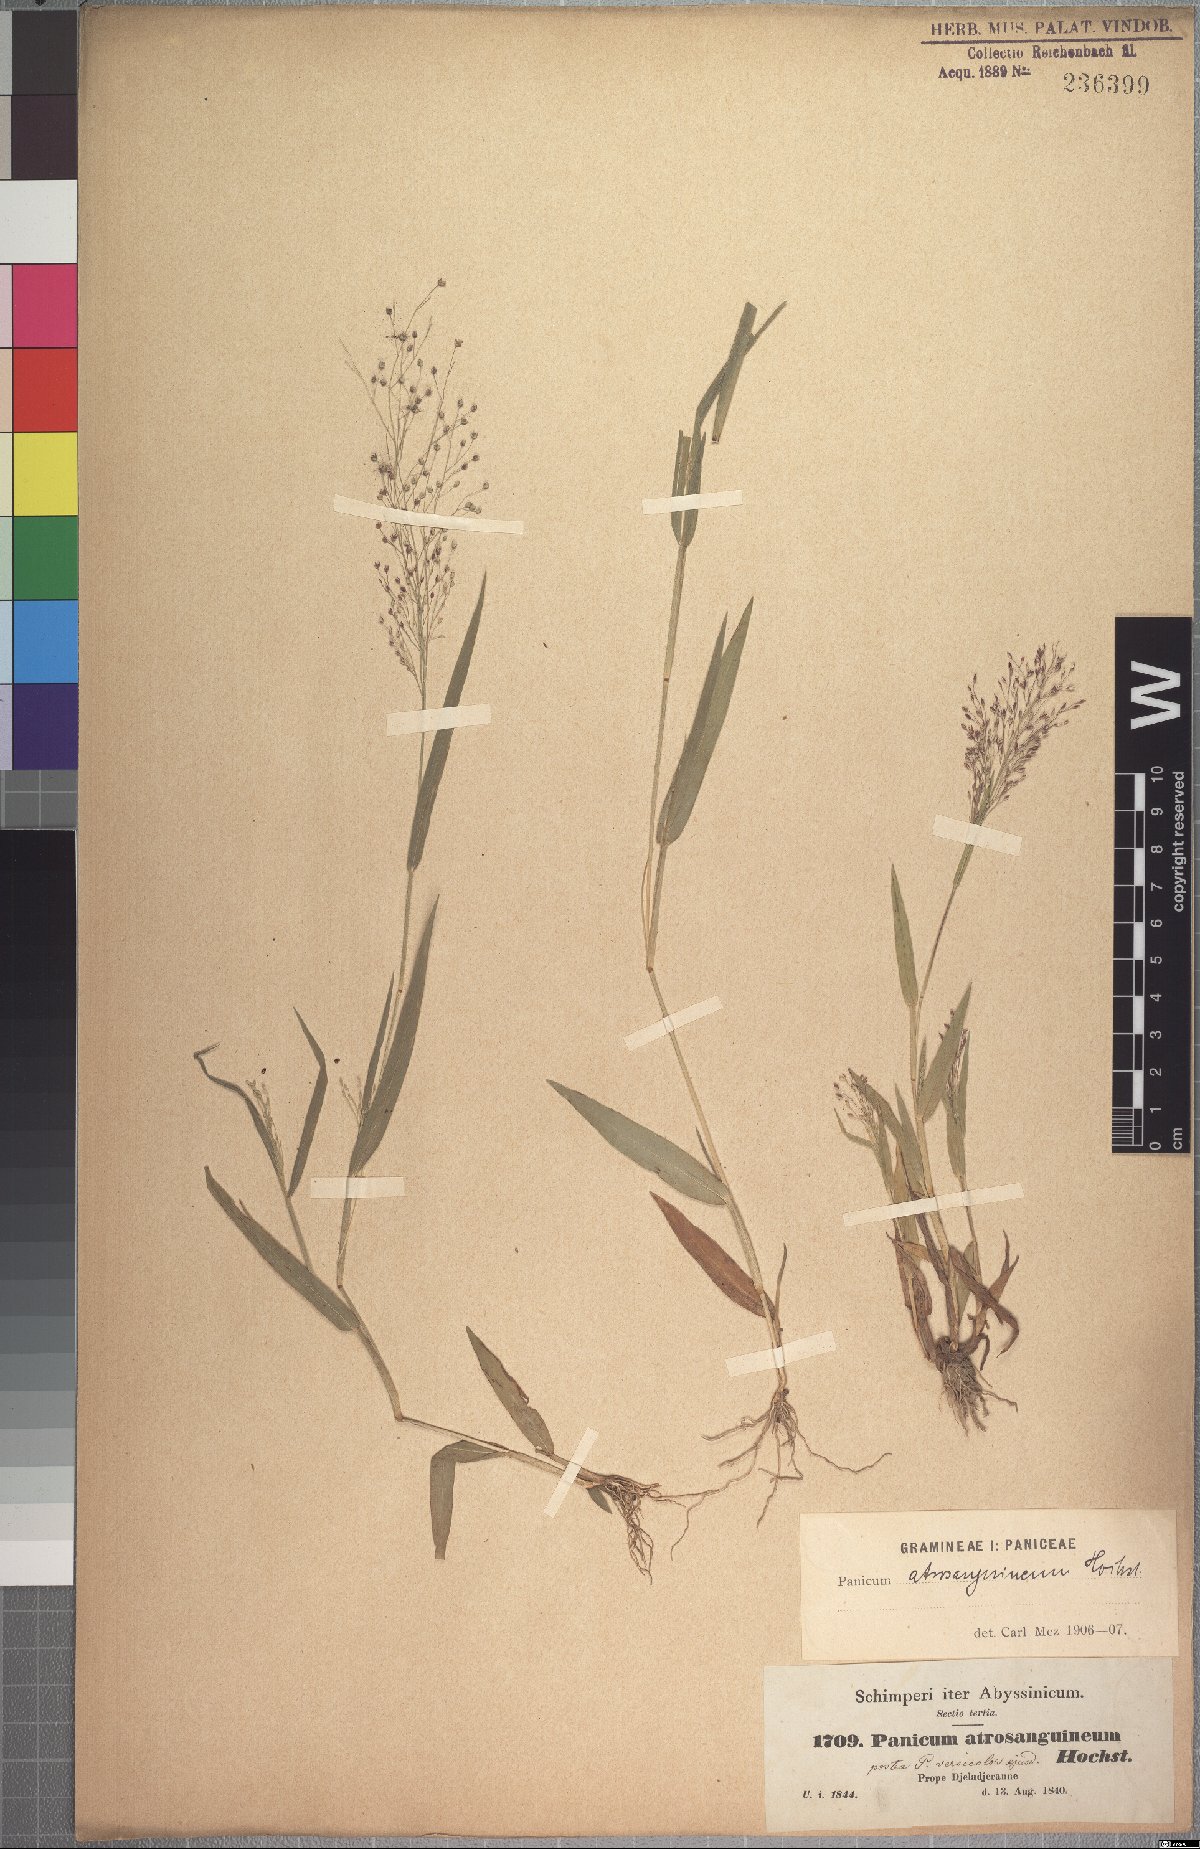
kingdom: Plantae
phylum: Tracheophyta
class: Liliopsida
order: Poales
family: Poaceae
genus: Panicum
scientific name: Panicum atrosanguineum
